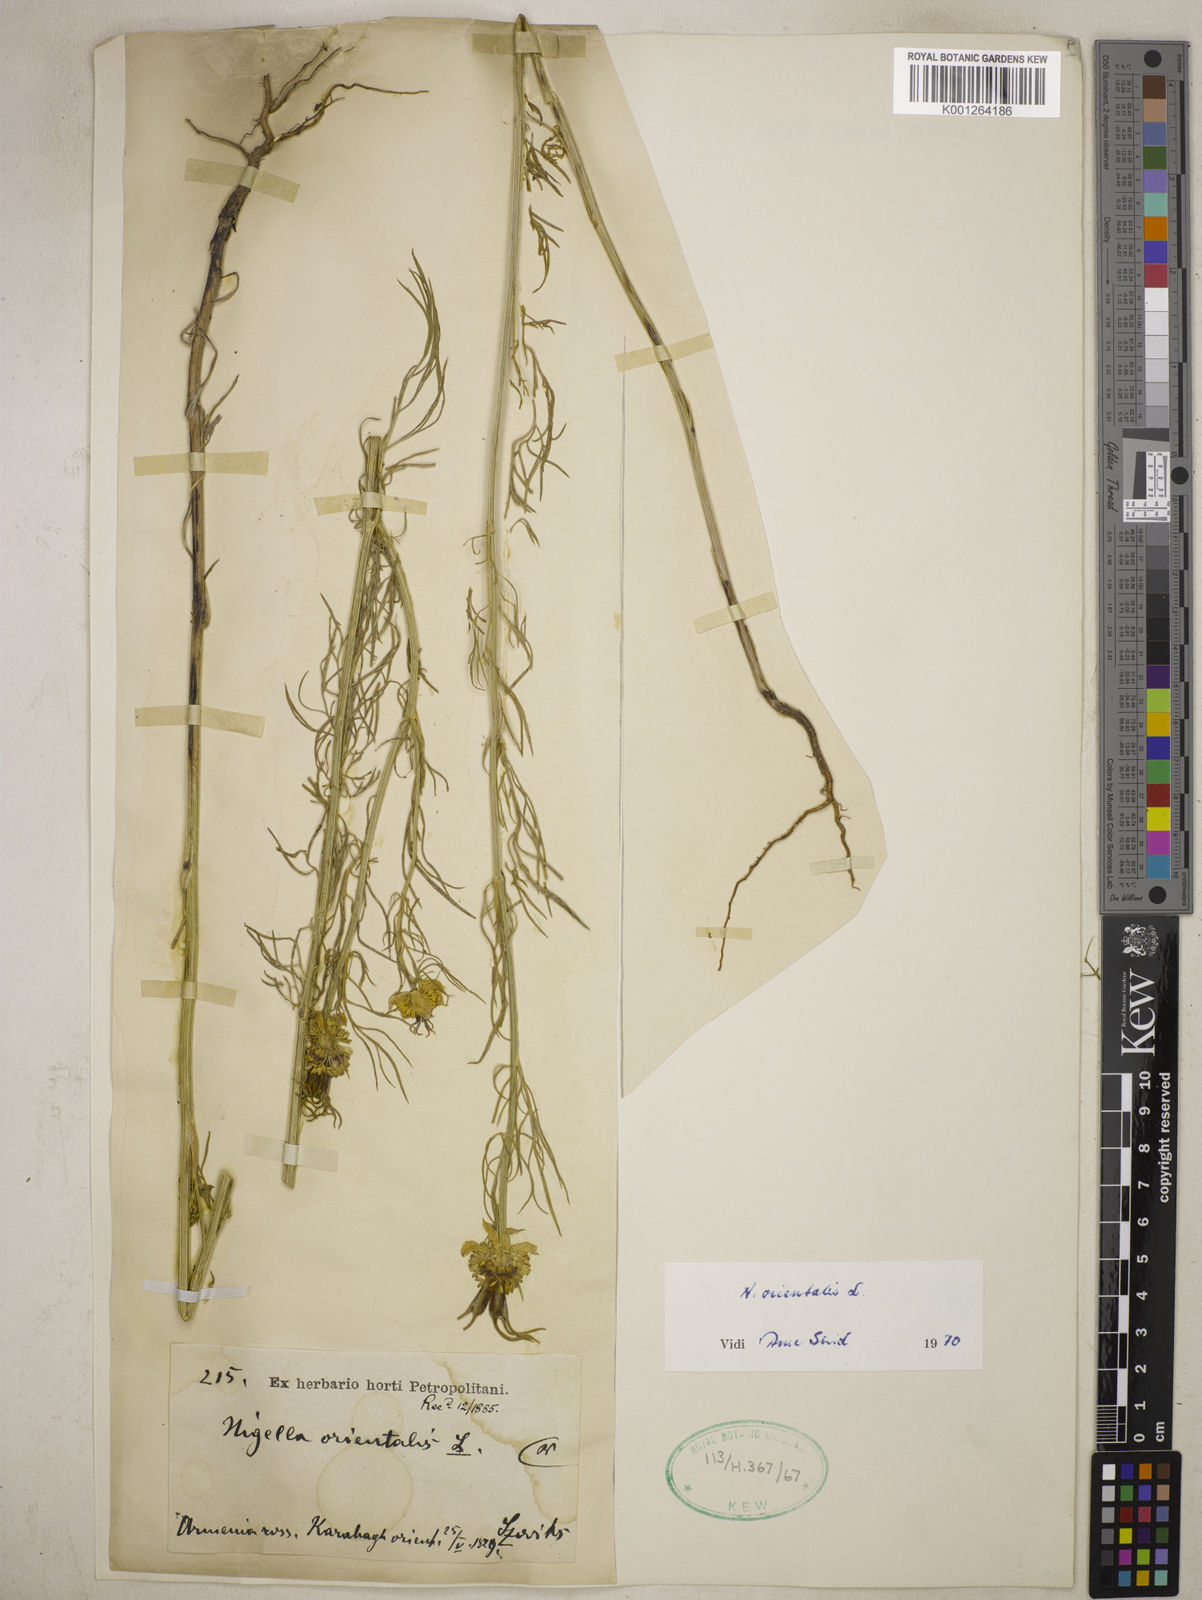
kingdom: Plantae
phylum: Tracheophyta
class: Magnoliopsida
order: Ranunculales
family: Ranunculaceae
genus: Nigella
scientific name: Nigella orientalis
